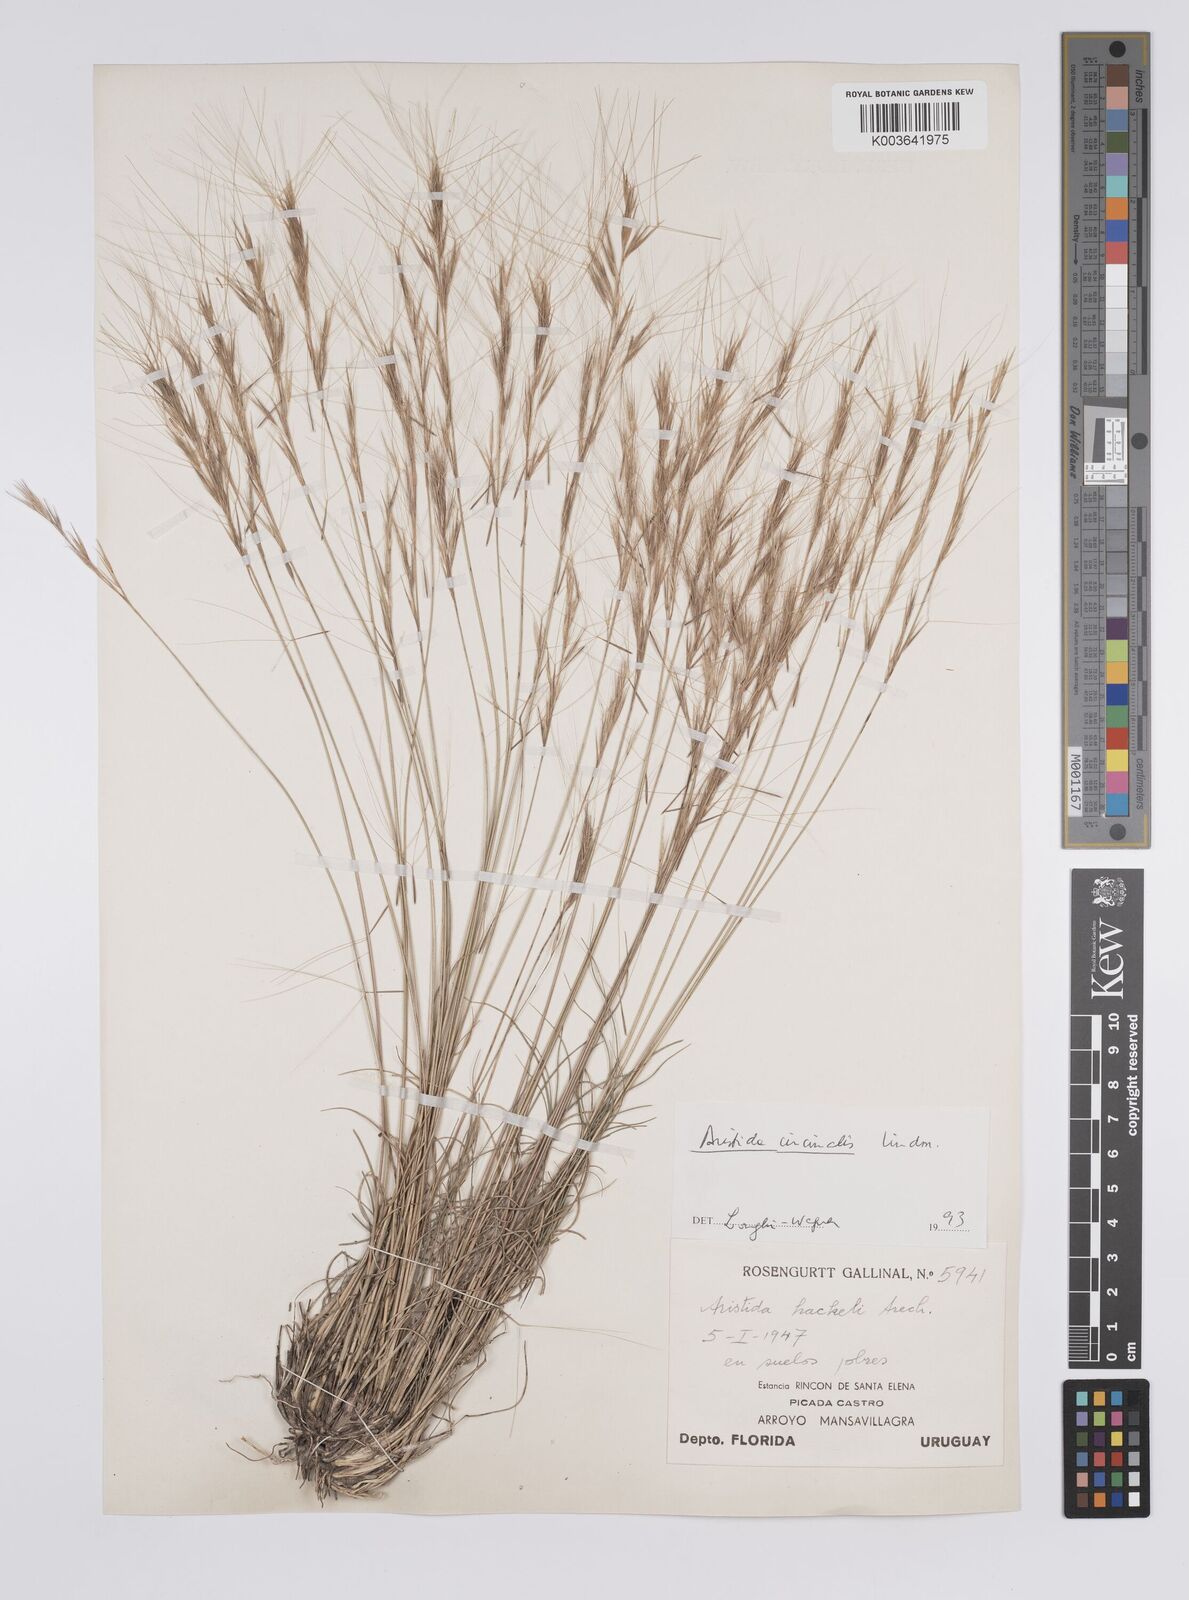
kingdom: Plantae
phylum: Tracheophyta
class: Liliopsida
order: Poales
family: Poaceae
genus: Aristida
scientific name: Aristida circinalis
